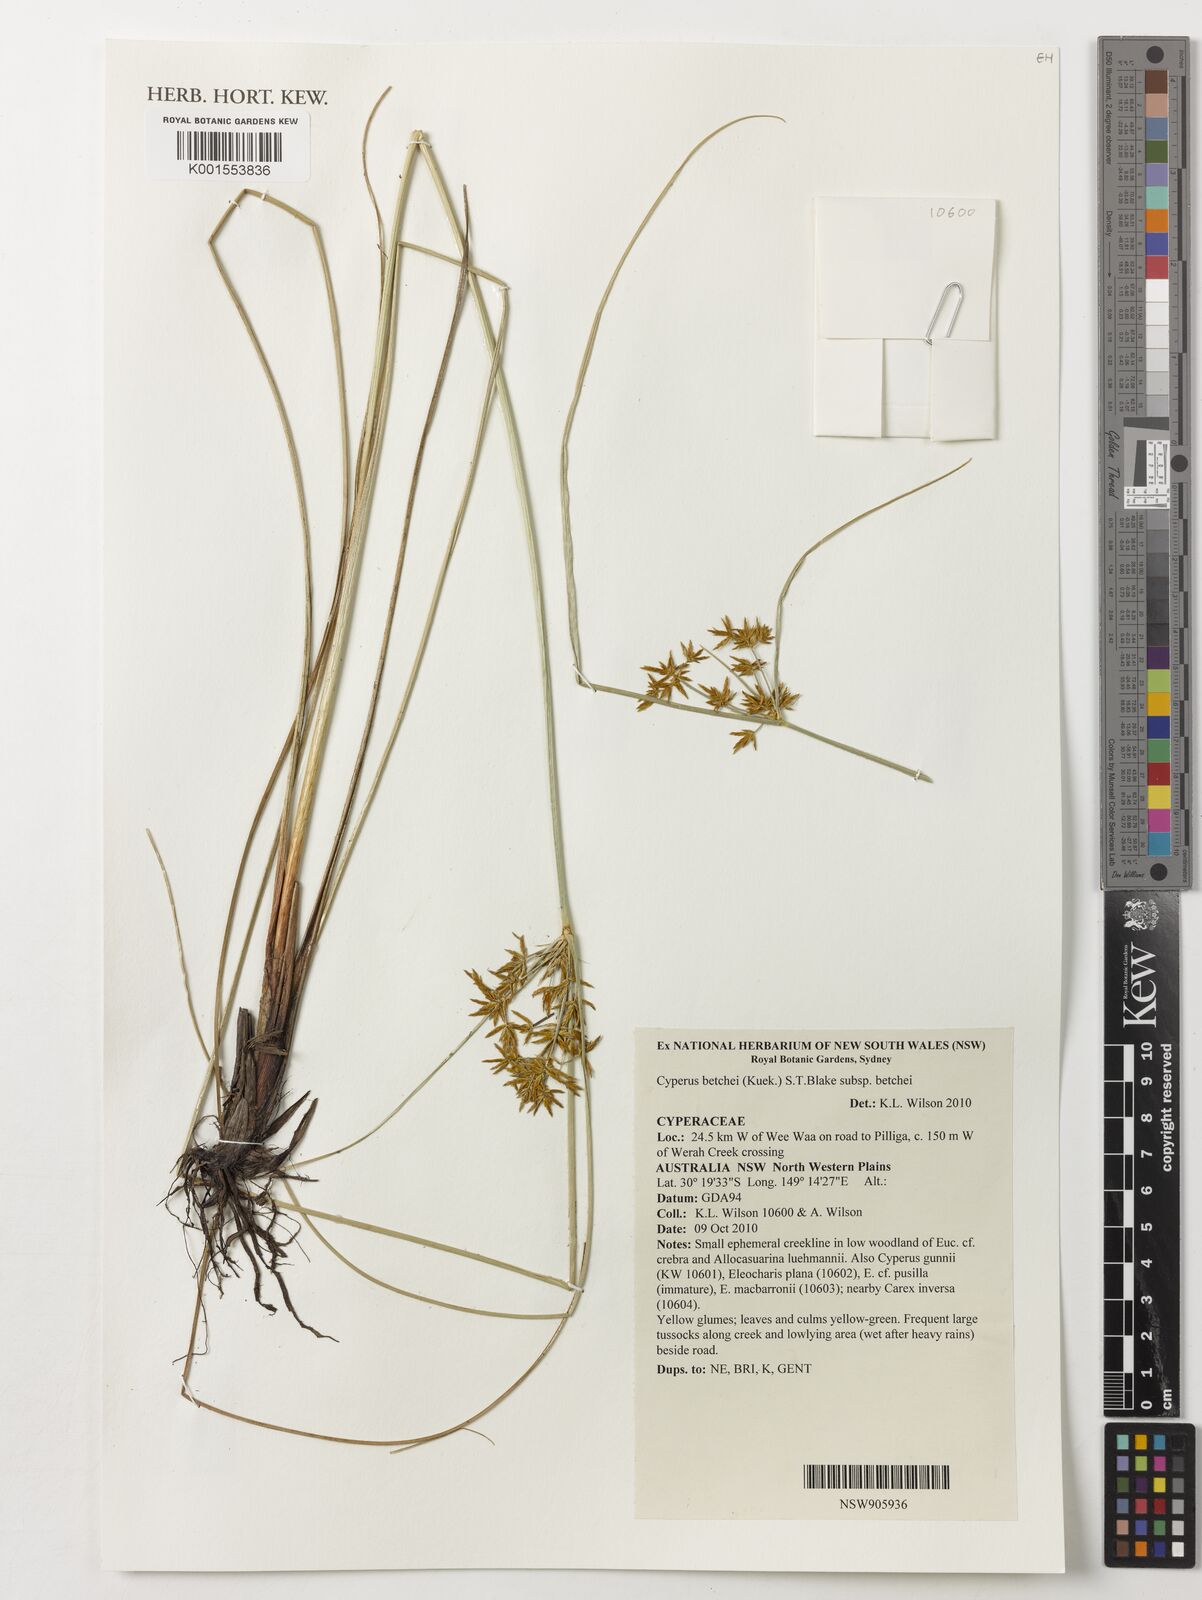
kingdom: Plantae
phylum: Tracheophyta
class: Liliopsida
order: Poales
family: Cyperaceae
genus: Cyperus
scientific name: Cyperus betchei
